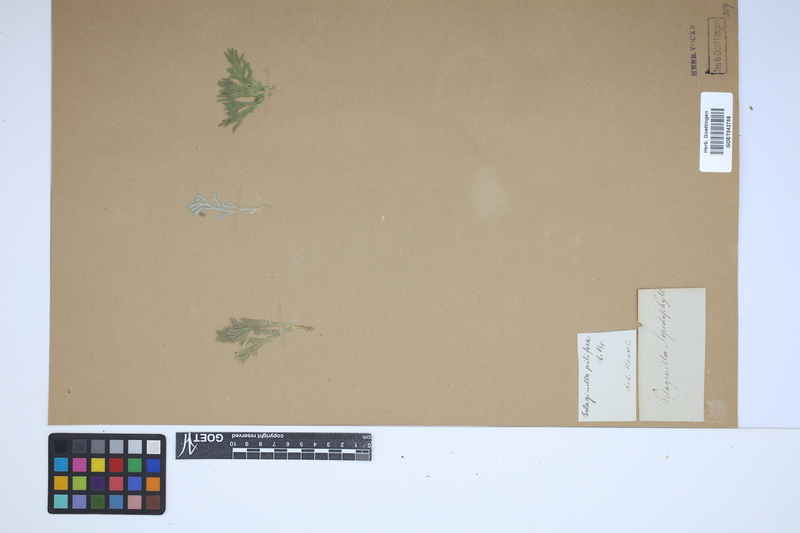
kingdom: Plantae
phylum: Tracheophyta
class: Lycopodiopsida
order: Selaginellales
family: Selaginellaceae
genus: Selaginella
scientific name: Selaginella pilifera
